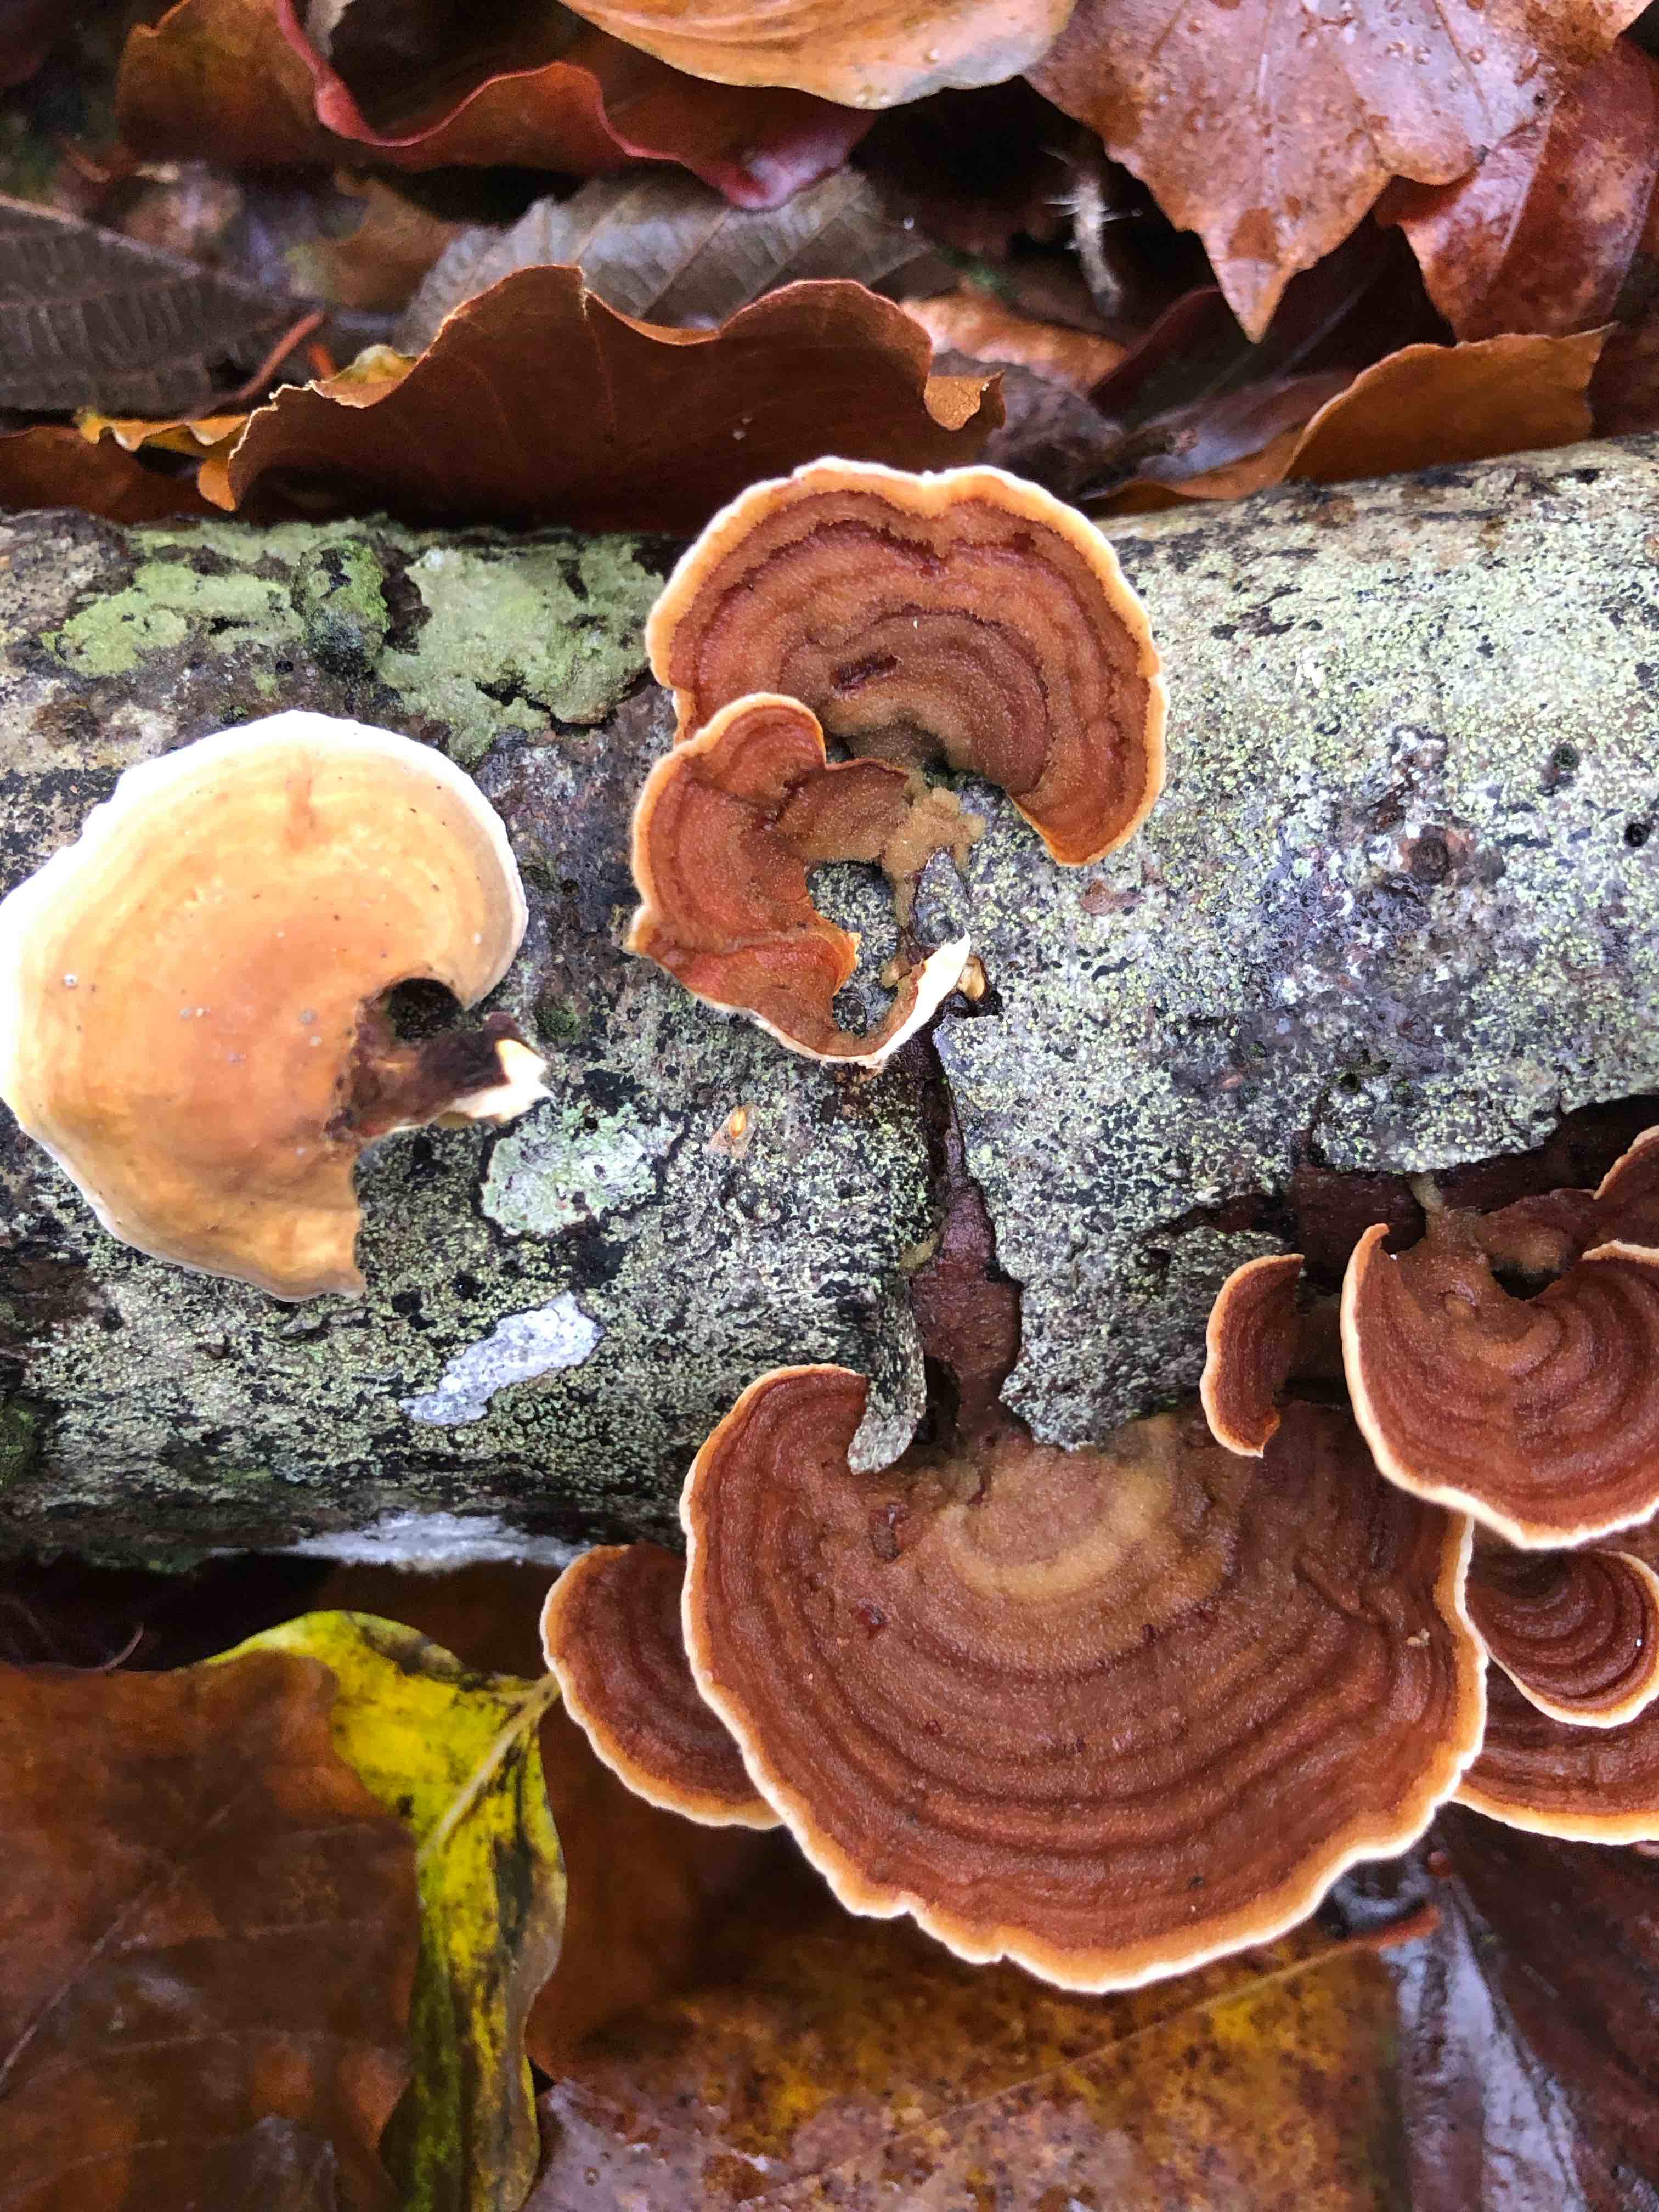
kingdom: Fungi
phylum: Basidiomycota
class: Agaricomycetes
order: Russulales
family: Stereaceae
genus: Stereum
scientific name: Stereum subtomentosum
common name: smuk lædersvamp
